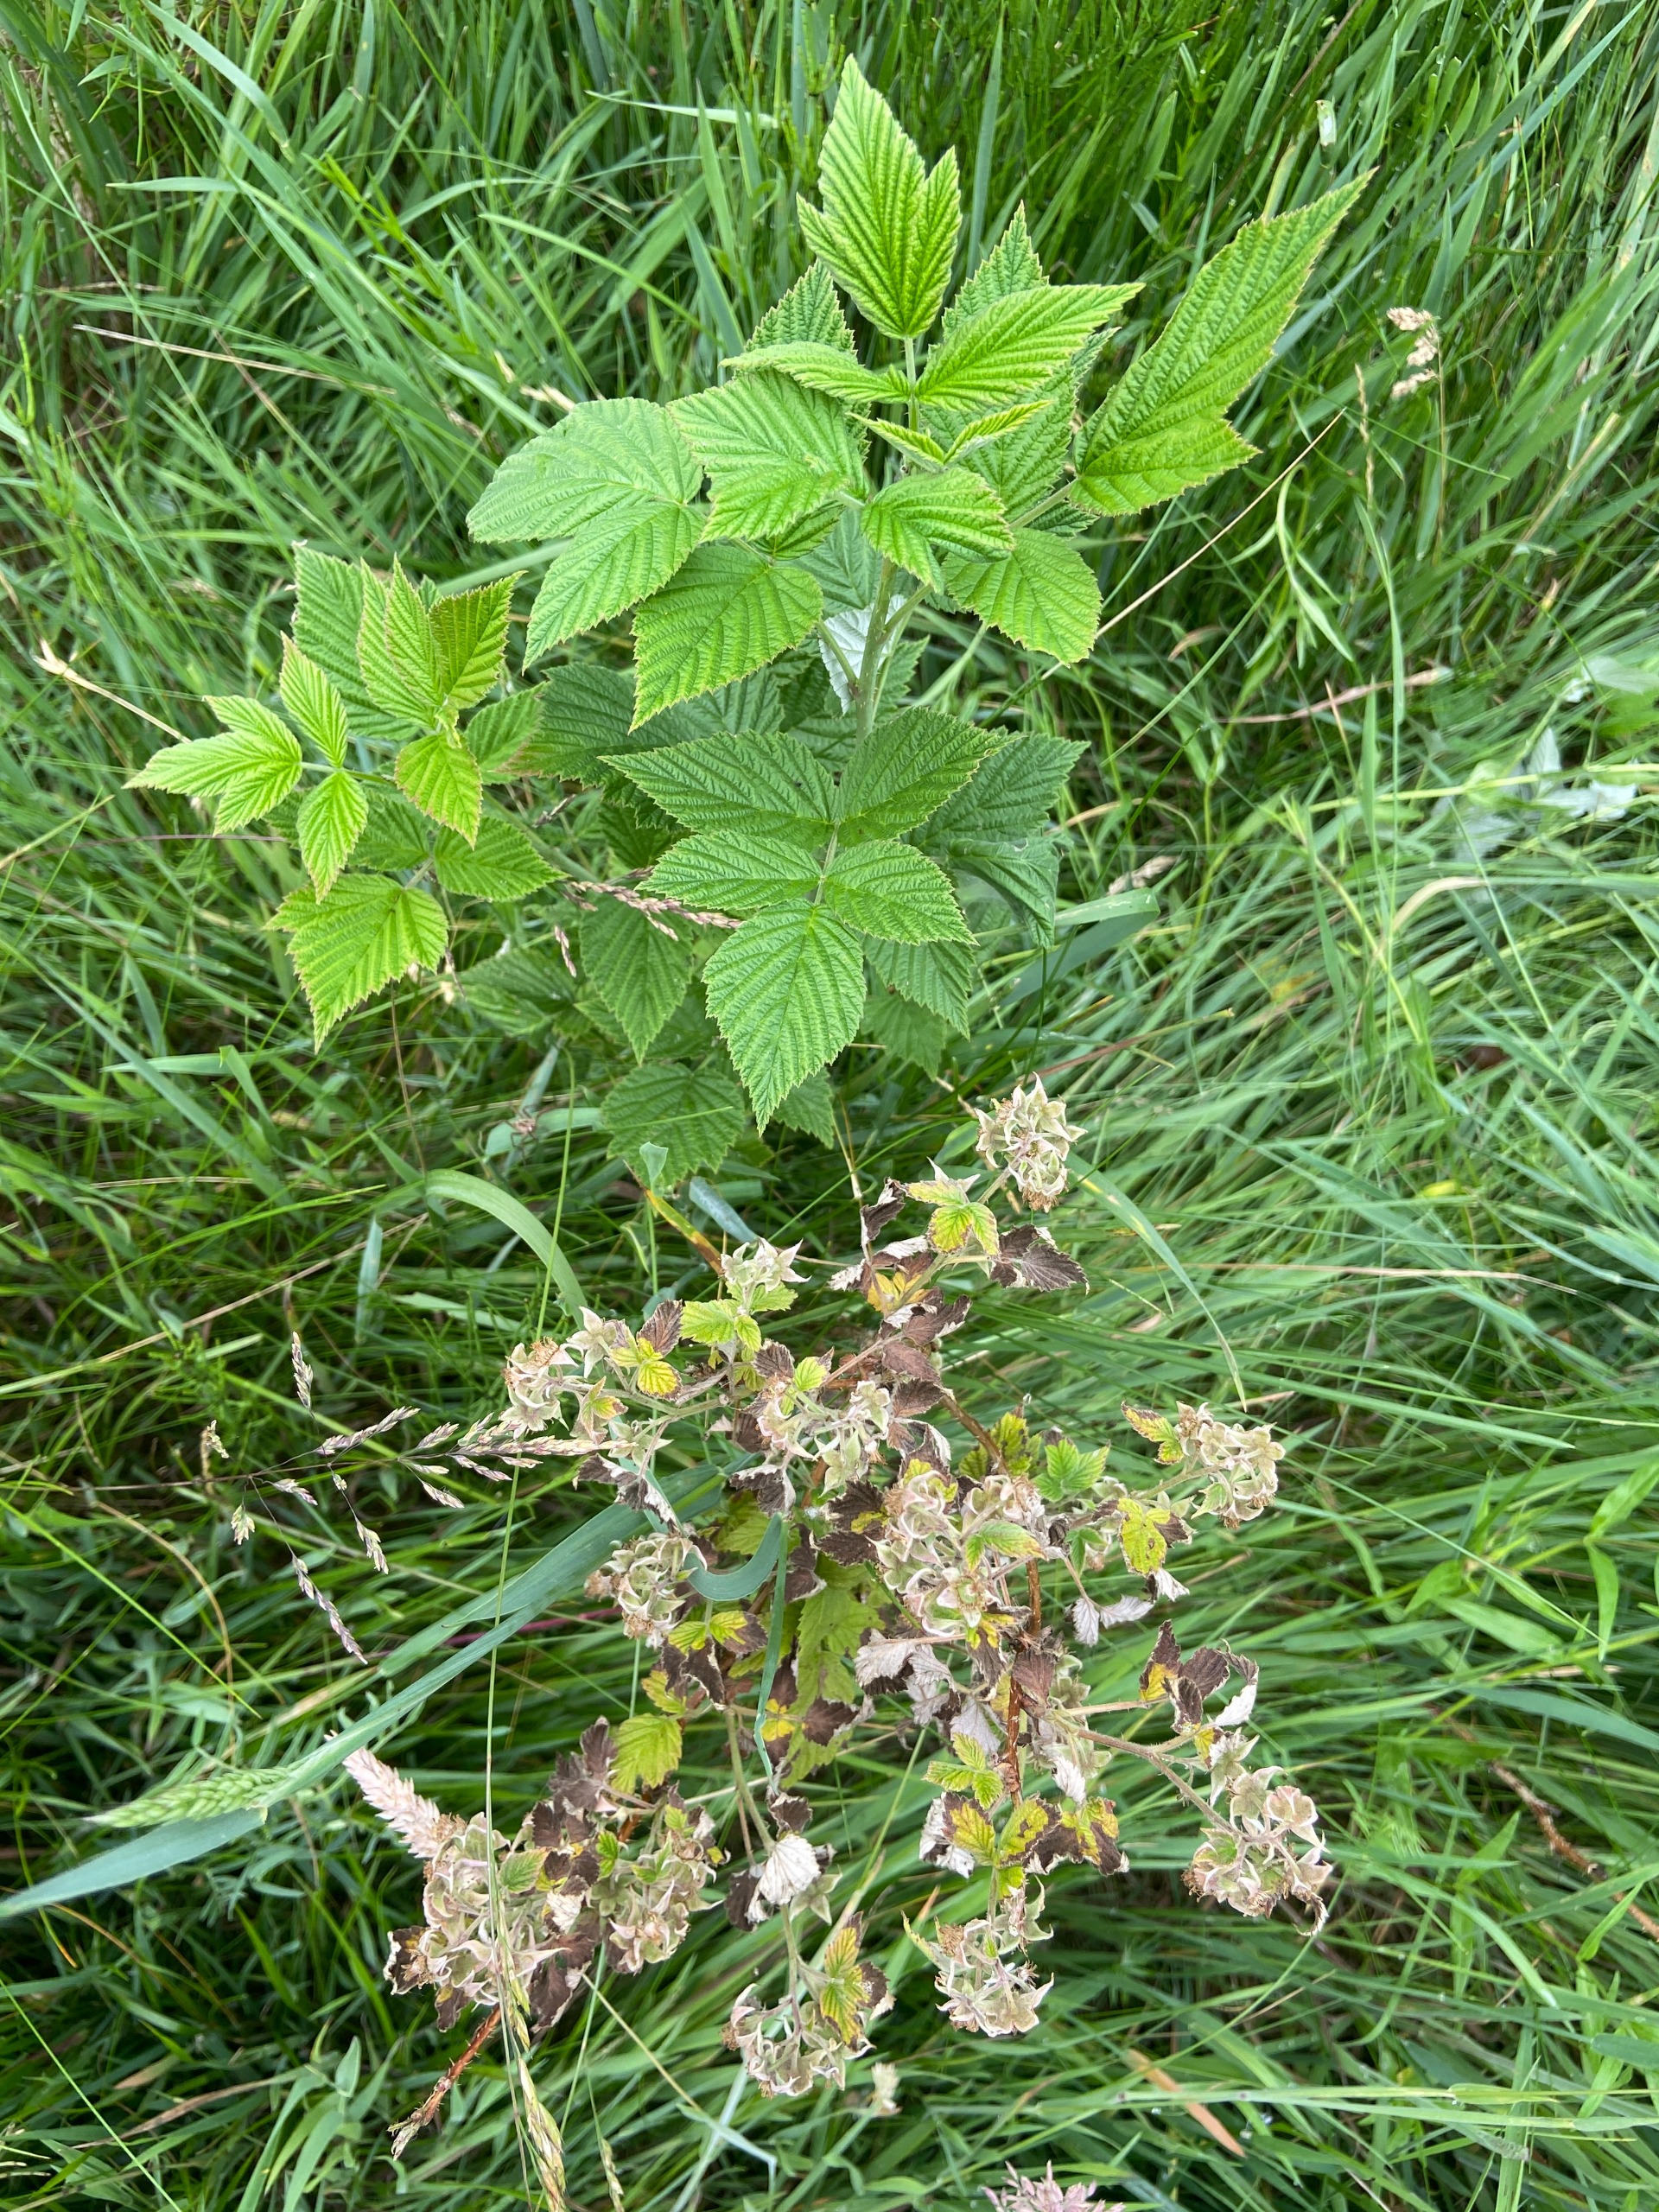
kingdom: Plantae
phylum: Tracheophyta
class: Magnoliopsida
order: Rosales
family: Rosaceae
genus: Rubus
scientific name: Rubus idaeus
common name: Hindbær
